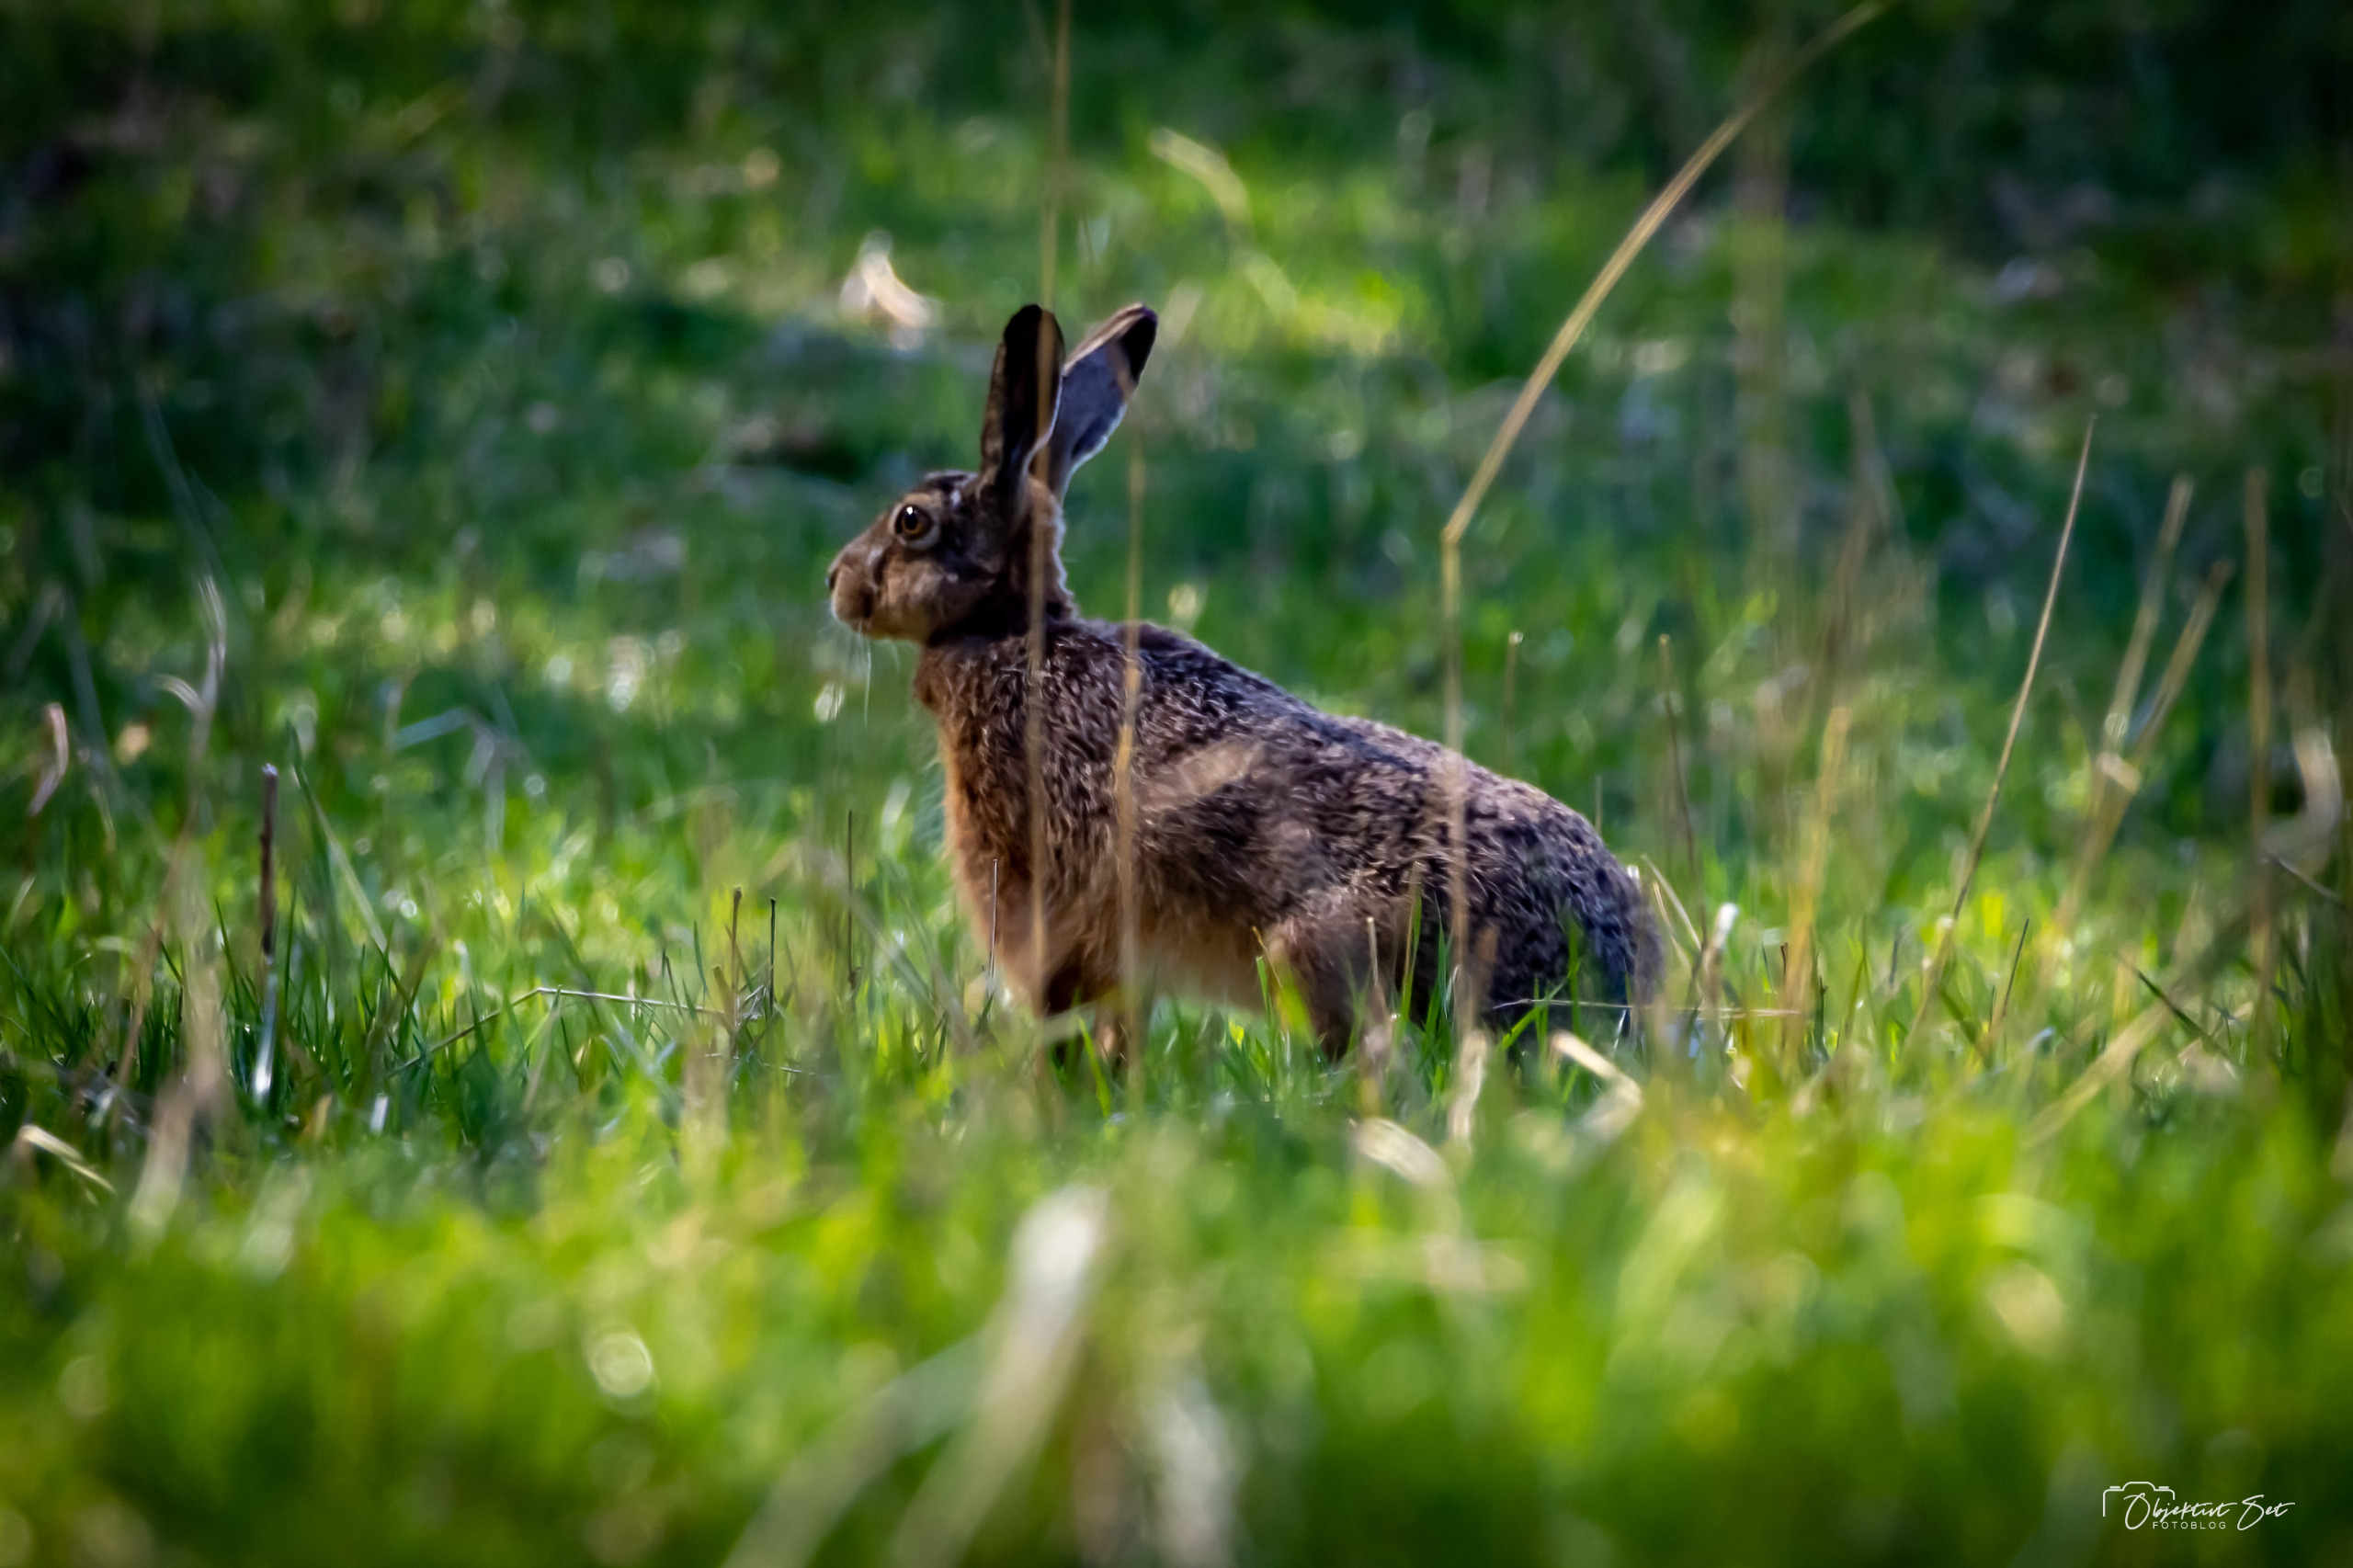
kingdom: Animalia
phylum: Chordata
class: Mammalia
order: Lagomorpha
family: Leporidae
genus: Lepus
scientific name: Lepus europaeus
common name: Hare
